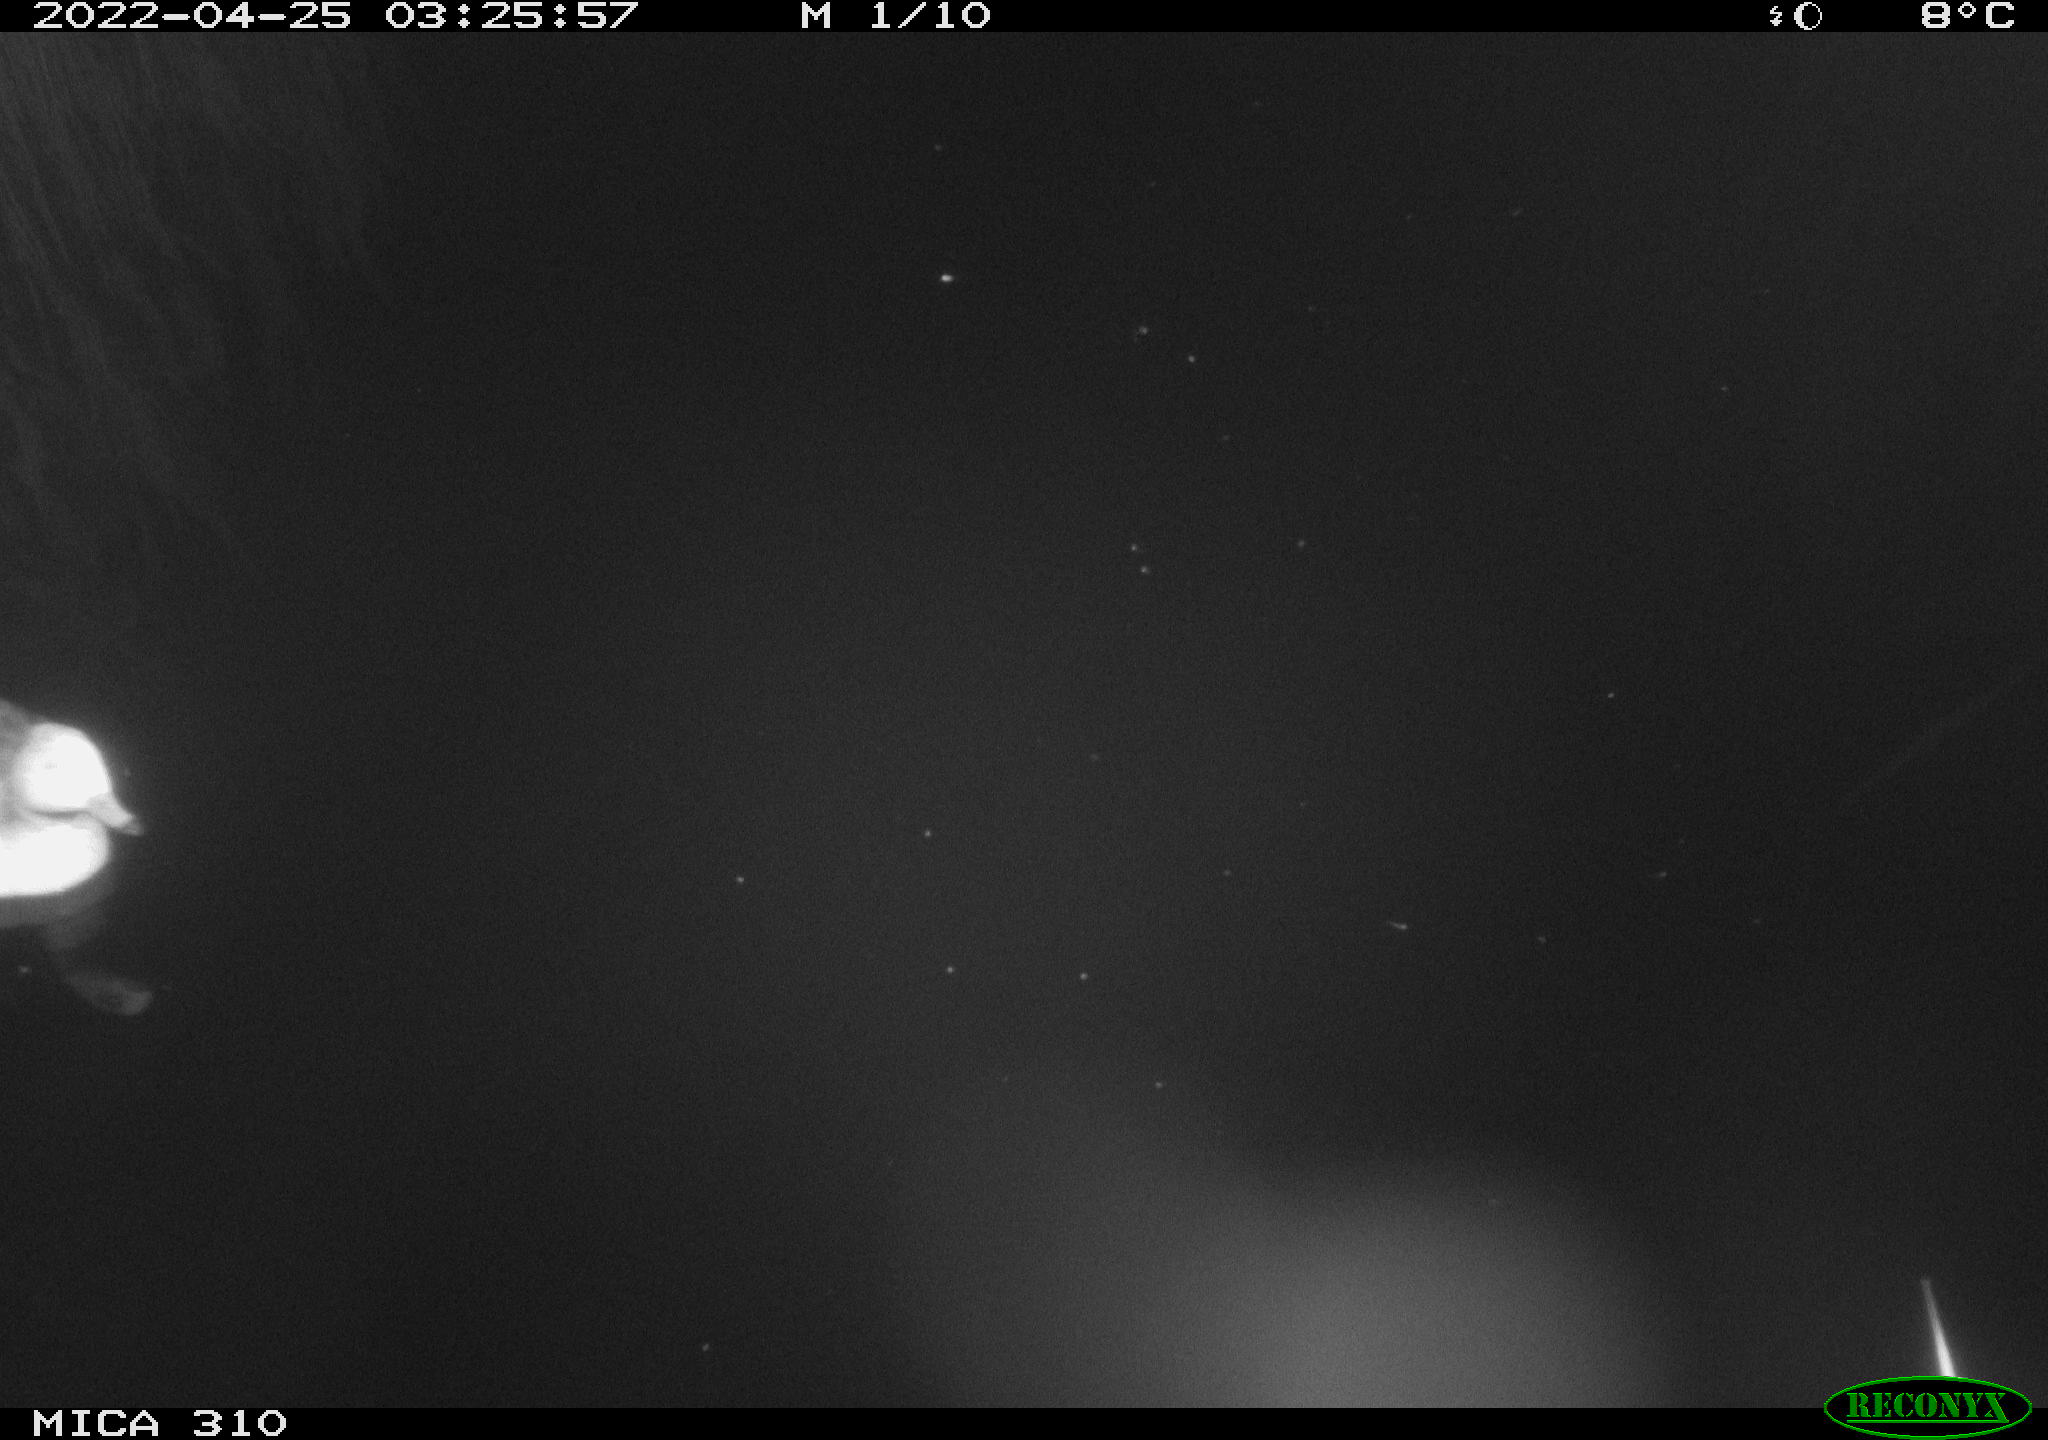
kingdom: Animalia
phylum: Chordata
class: Aves
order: Anseriformes
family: Anatidae
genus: Mareca
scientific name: Mareca strepera
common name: Gadwall
